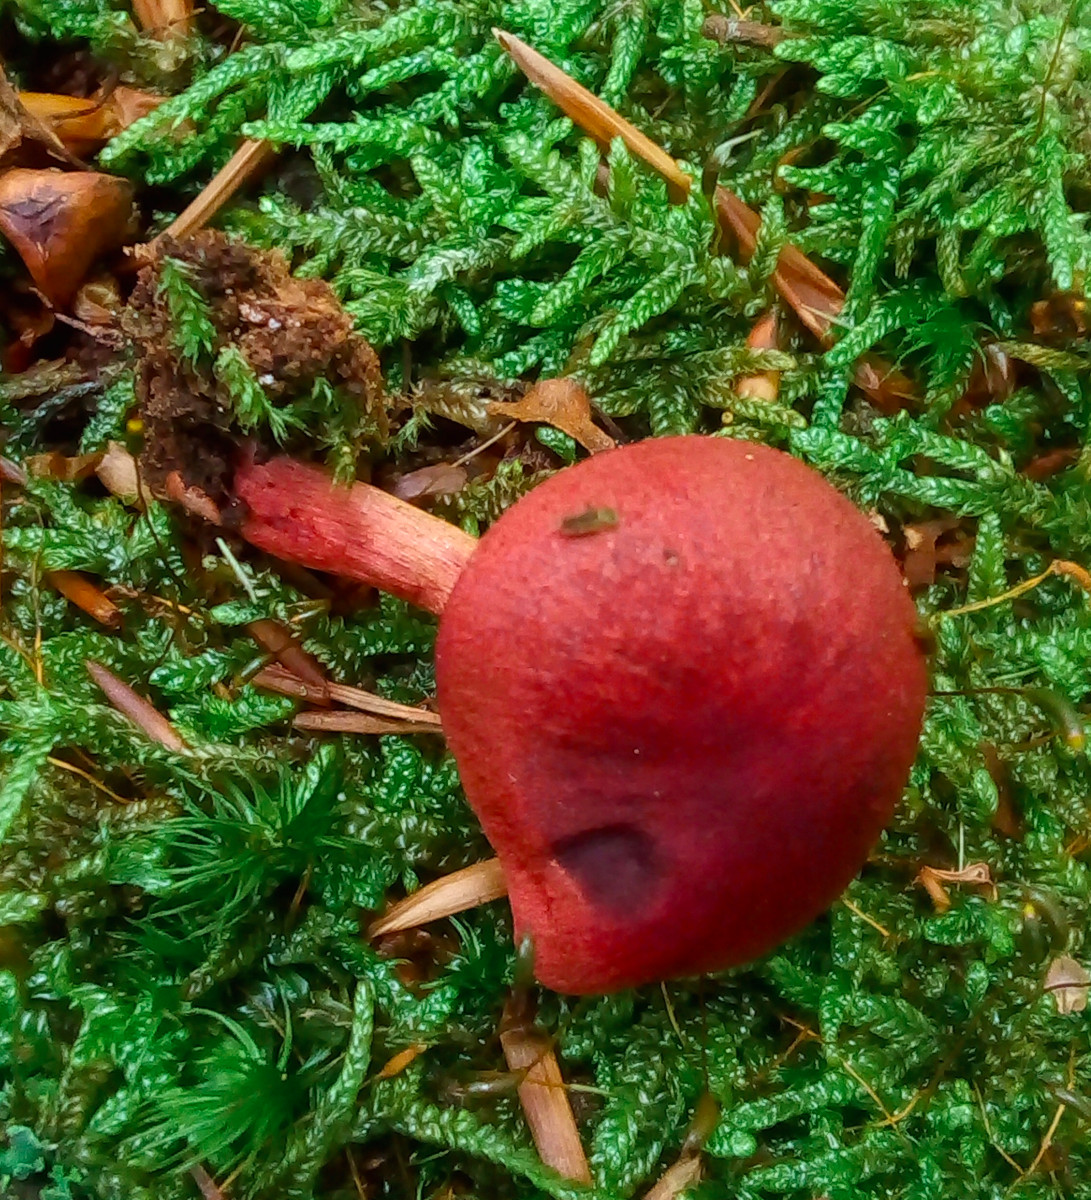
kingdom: Fungi
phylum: Basidiomycota
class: Agaricomycetes
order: Agaricales
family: Cortinariaceae
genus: Cortinarius
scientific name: Cortinarius
